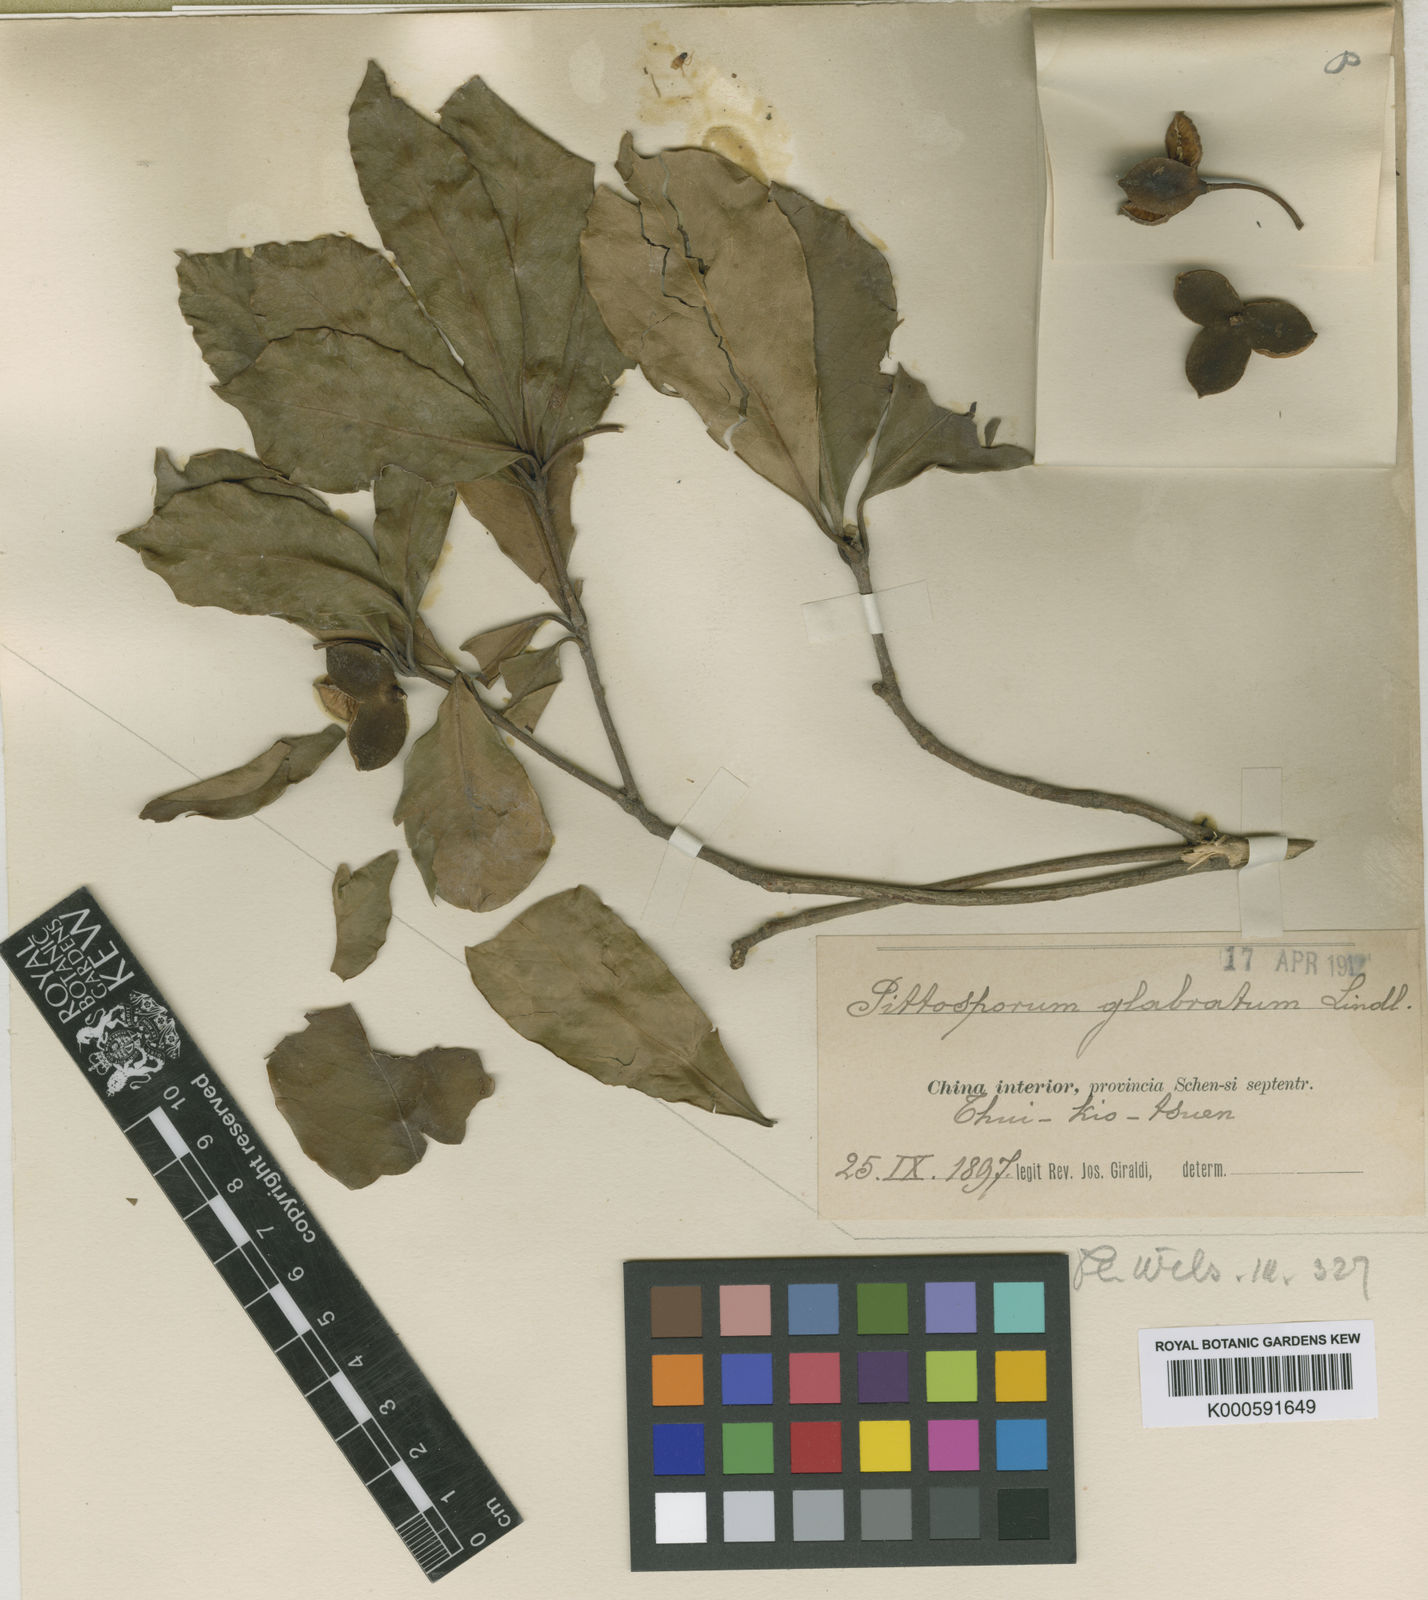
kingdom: Plantae
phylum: Tracheophyta
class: Magnoliopsida
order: Apiales
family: Pittosporaceae
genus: Pittosporum
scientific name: Pittosporum rehderianum
